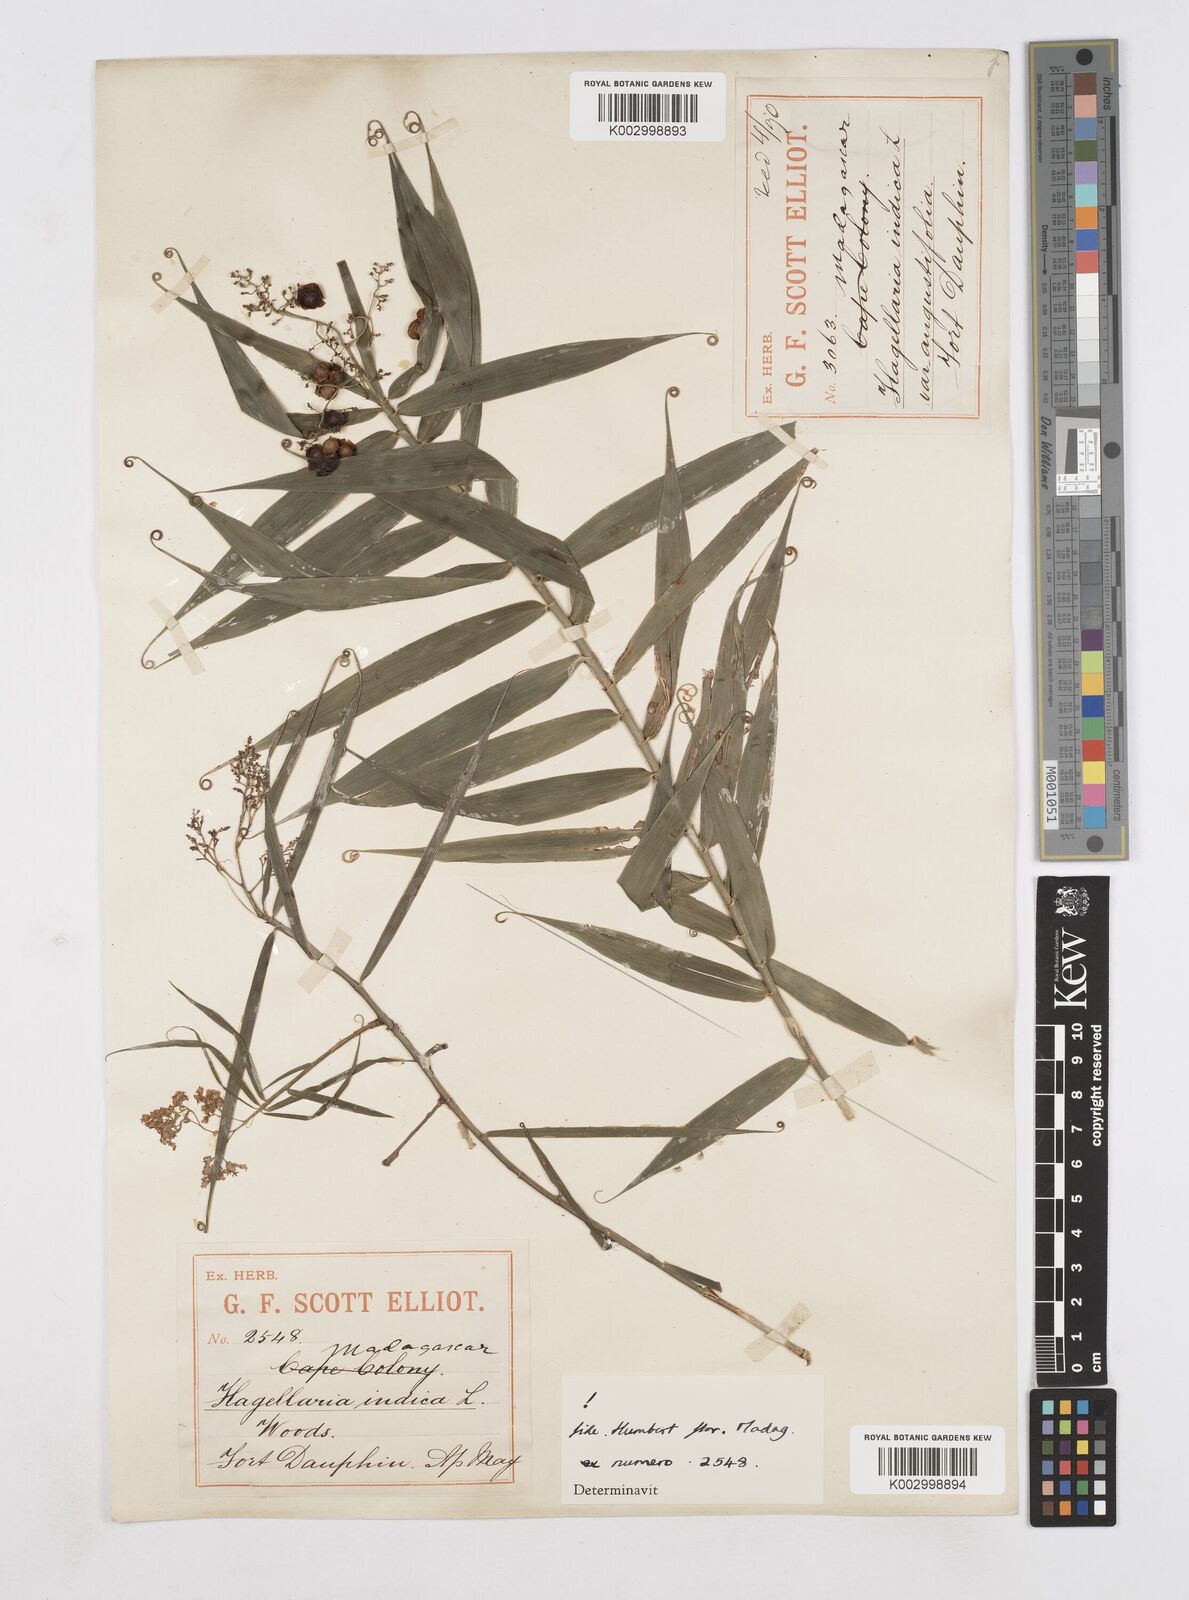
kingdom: Plantae
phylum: Tracheophyta
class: Liliopsida
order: Poales
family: Flagellariaceae
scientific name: Flagellariaceae
